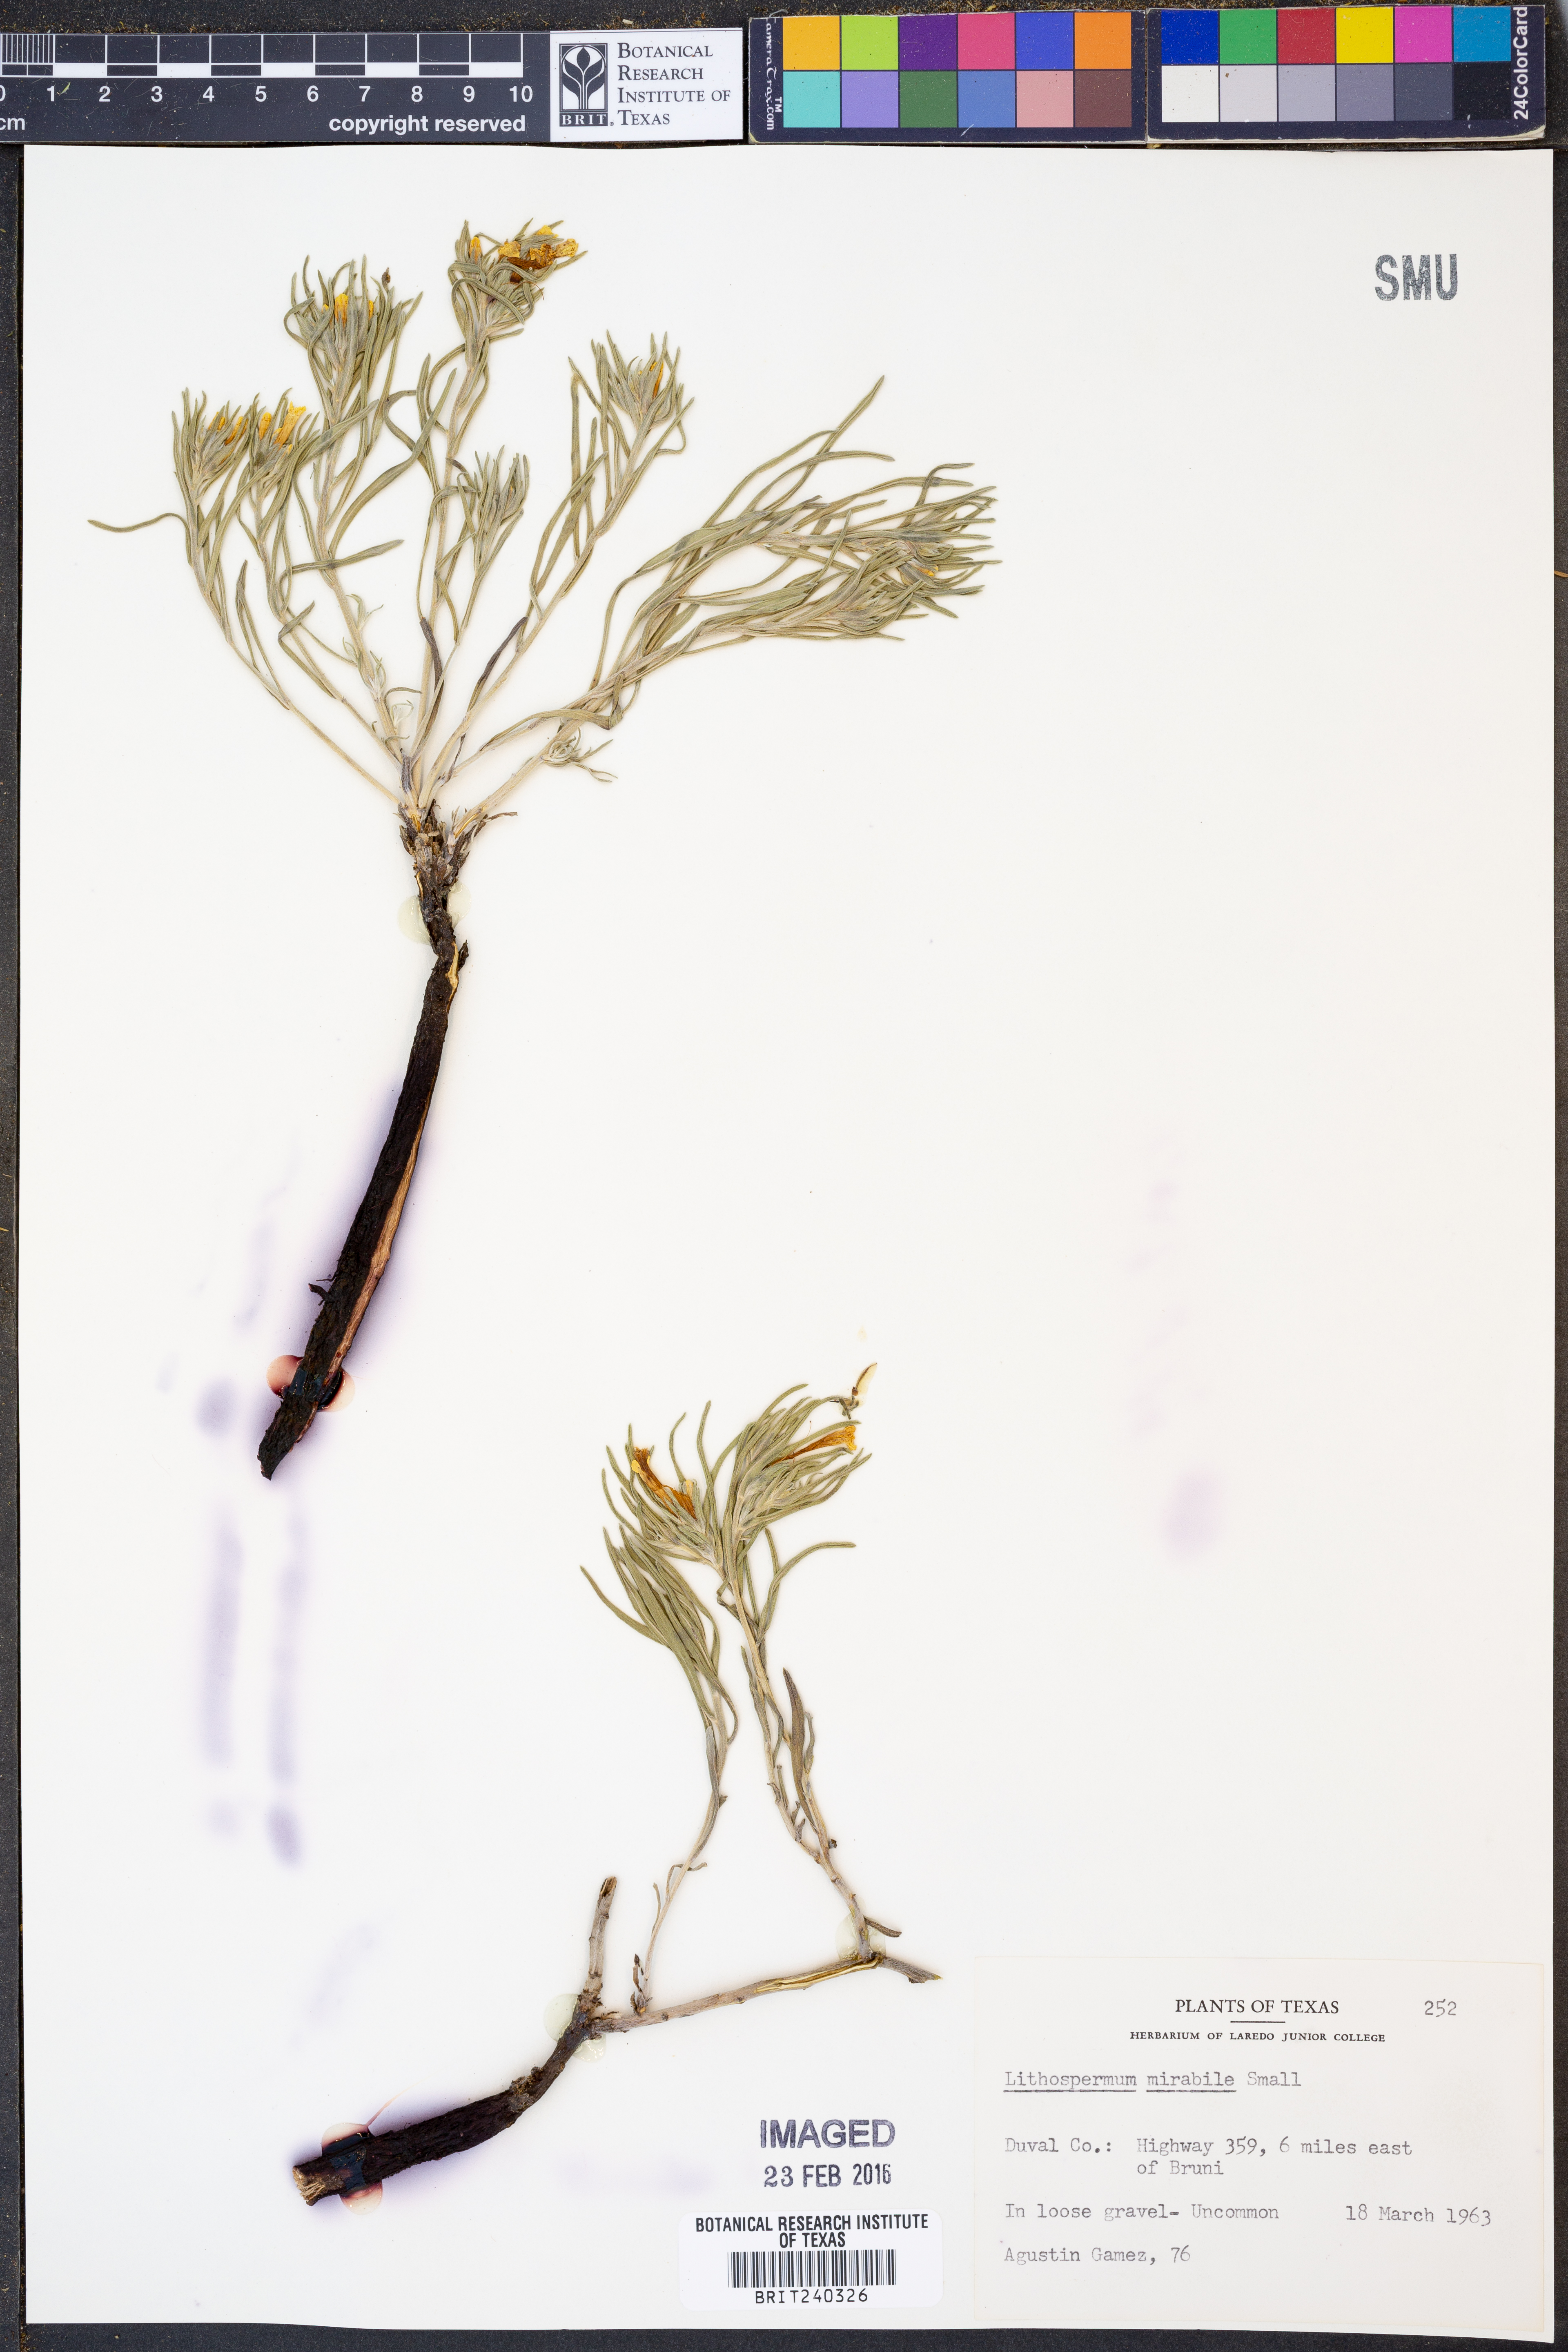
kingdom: Plantae
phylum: Tracheophyta
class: Magnoliopsida
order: Boraginales
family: Boraginaceae
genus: Lithospermum
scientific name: Lithospermum mirabile
